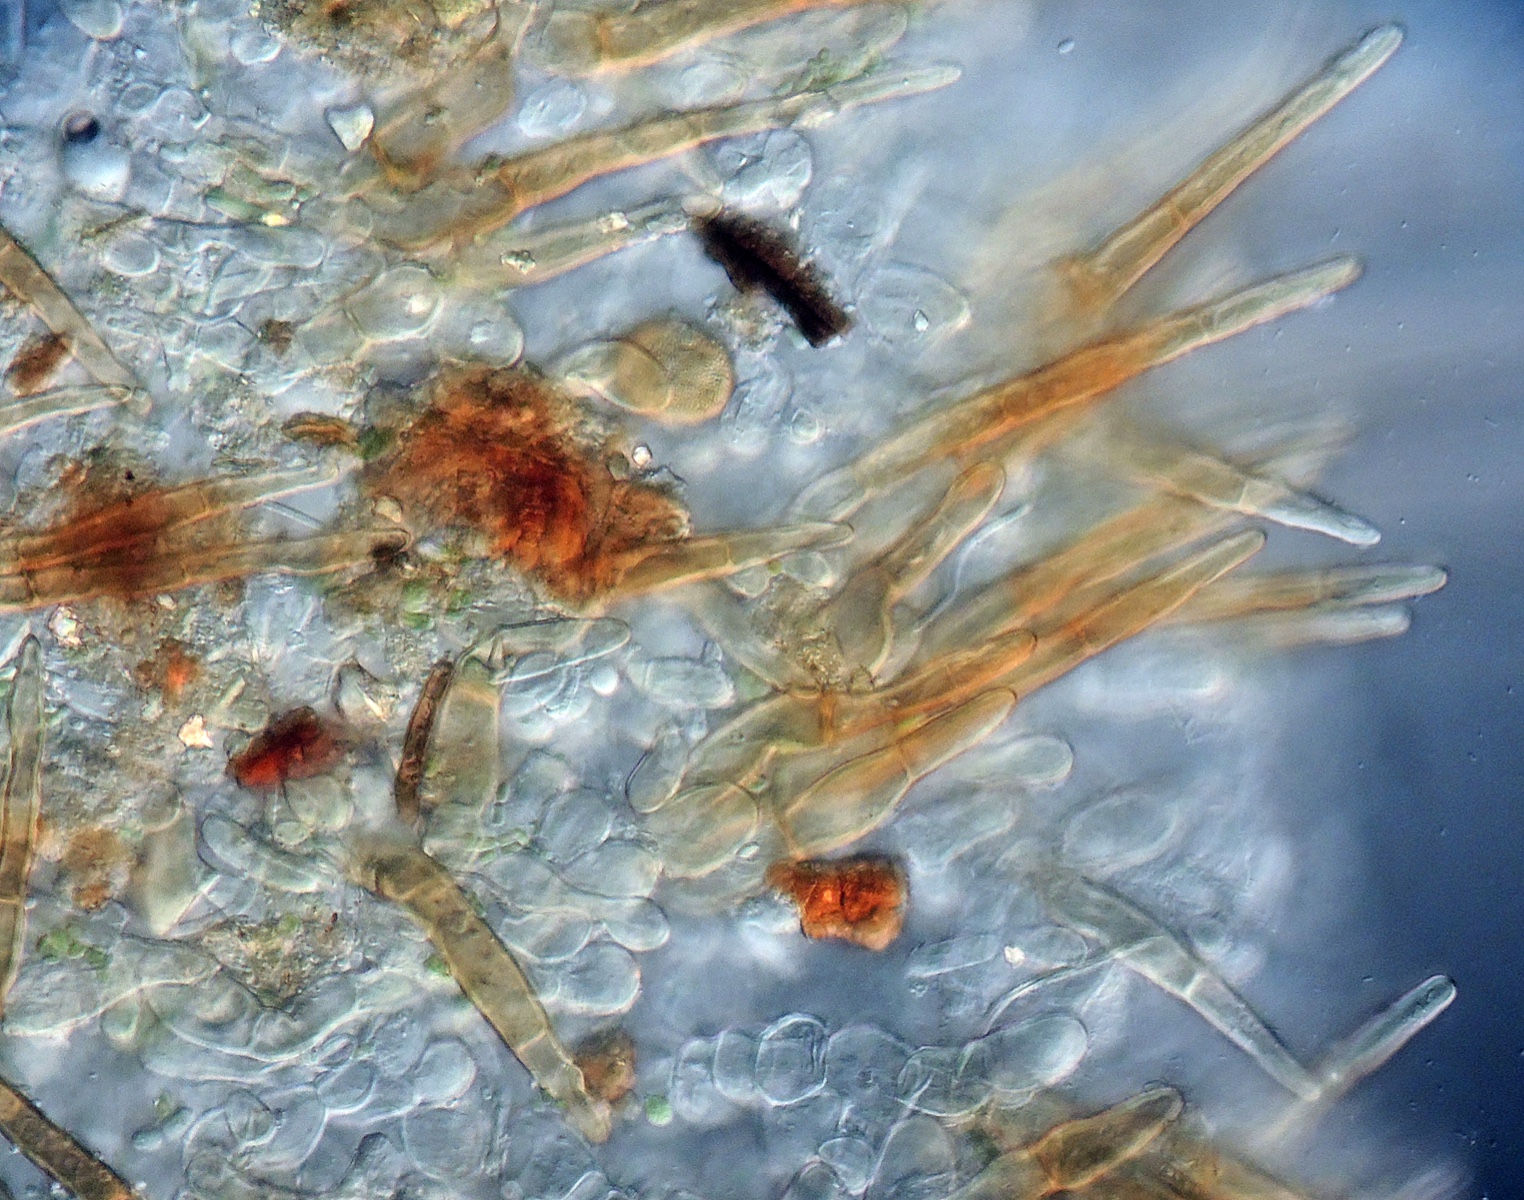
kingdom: Fungi
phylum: Ascomycota
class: Pezizomycetes
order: Pezizales
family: Pyronemataceae
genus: Trichophaea
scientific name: Trichophaea woolhopeia
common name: bredsporet børstebæger
